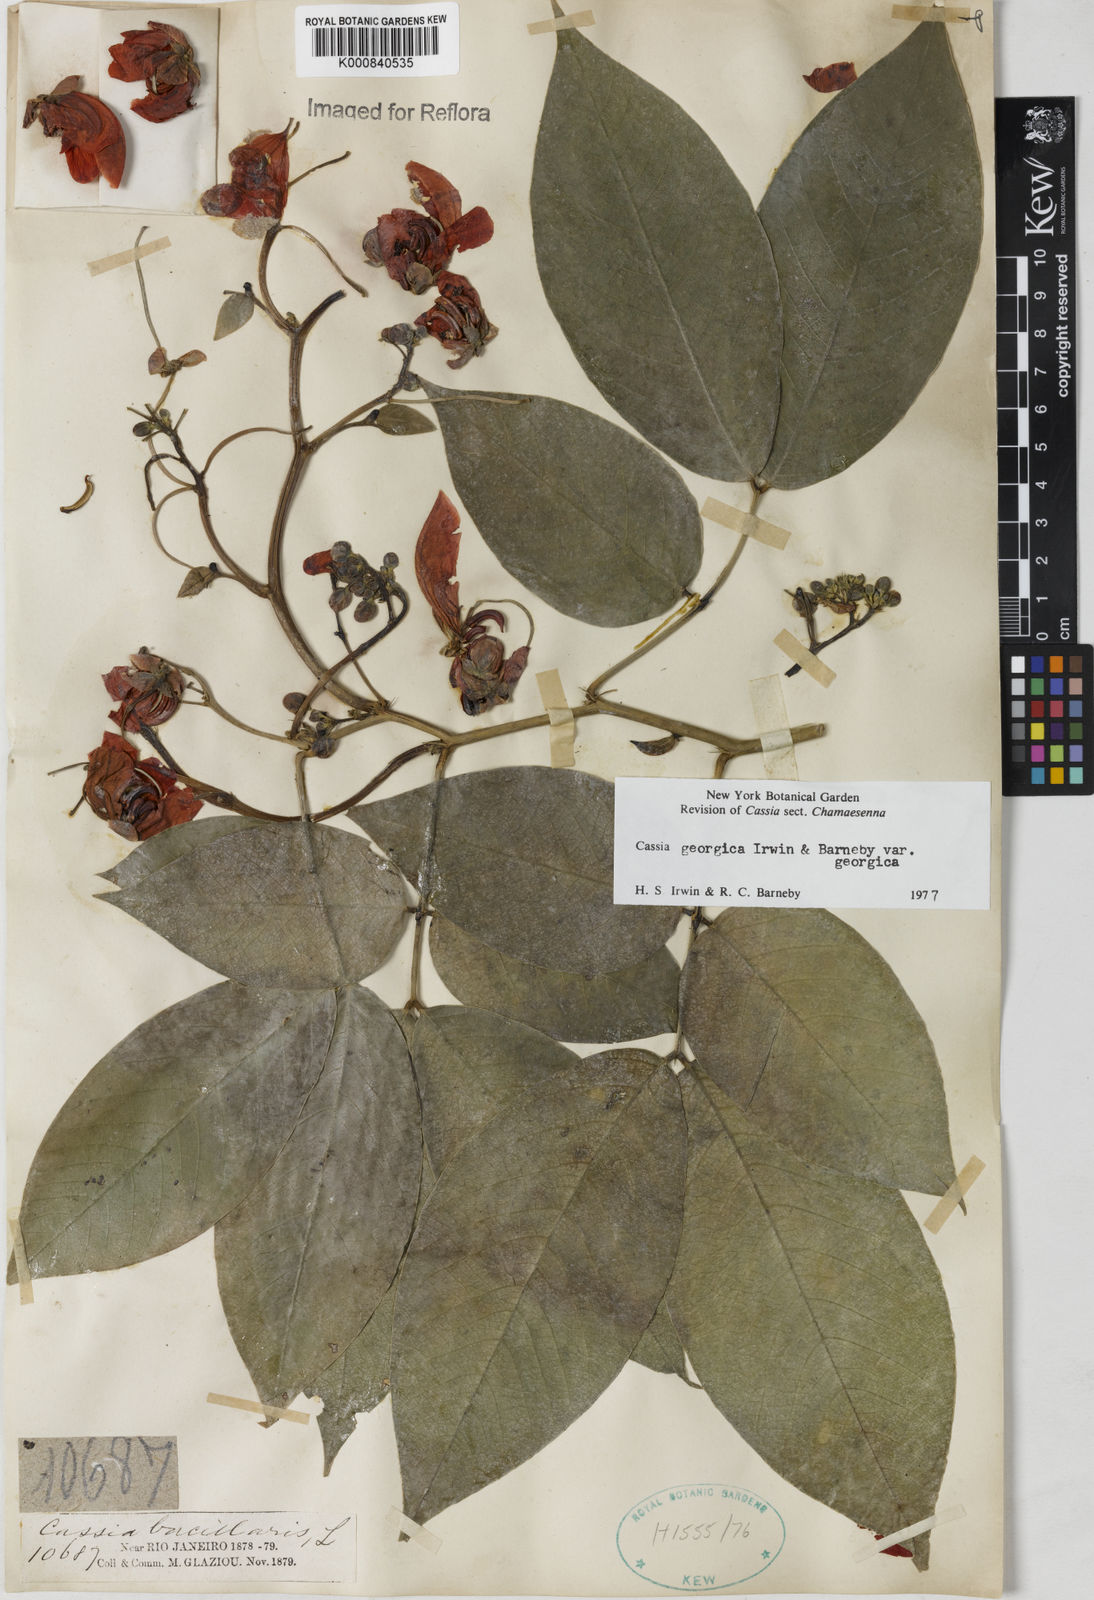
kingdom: Plantae
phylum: Tracheophyta
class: Magnoliopsida
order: Fabales
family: Fabaceae
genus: Senna
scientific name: Senna georgica
